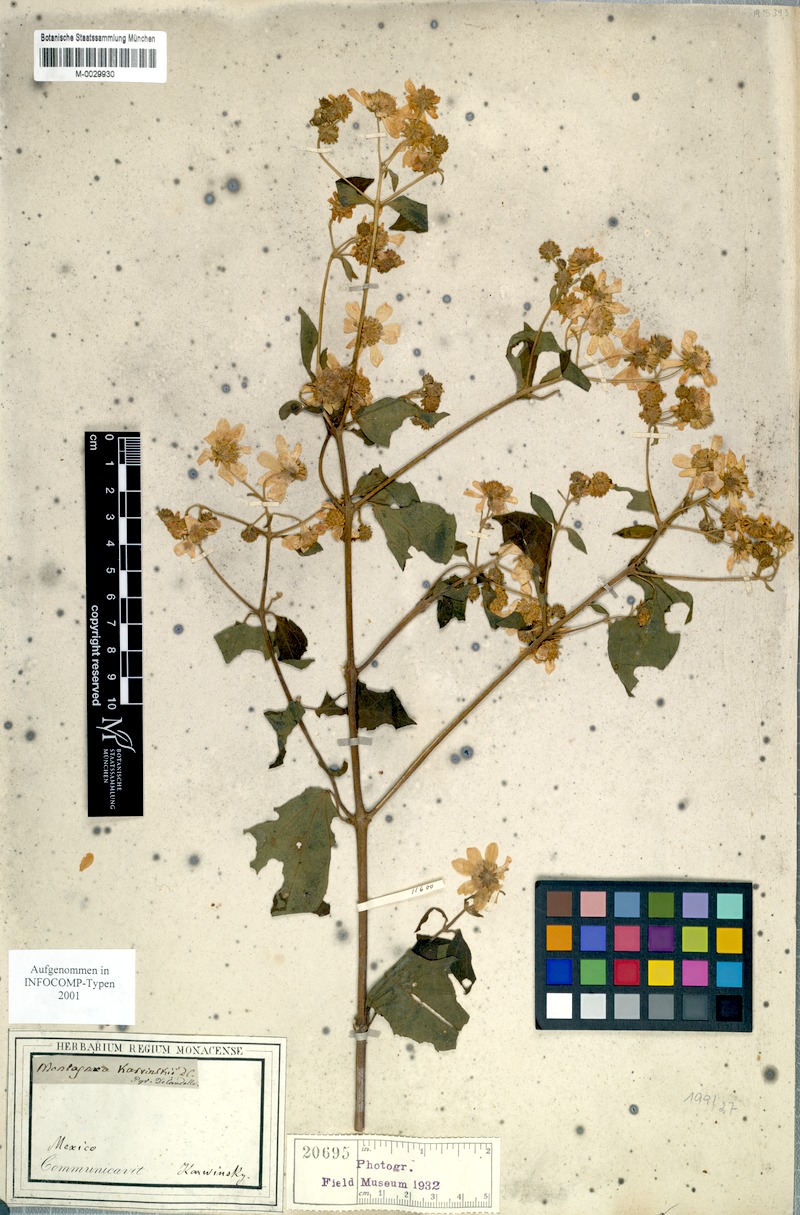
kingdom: Plantae
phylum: Tracheophyta
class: Magnoliopsida
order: Asterales
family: Asteraceae
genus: Montanoa
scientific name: Montanoa karwinskii
